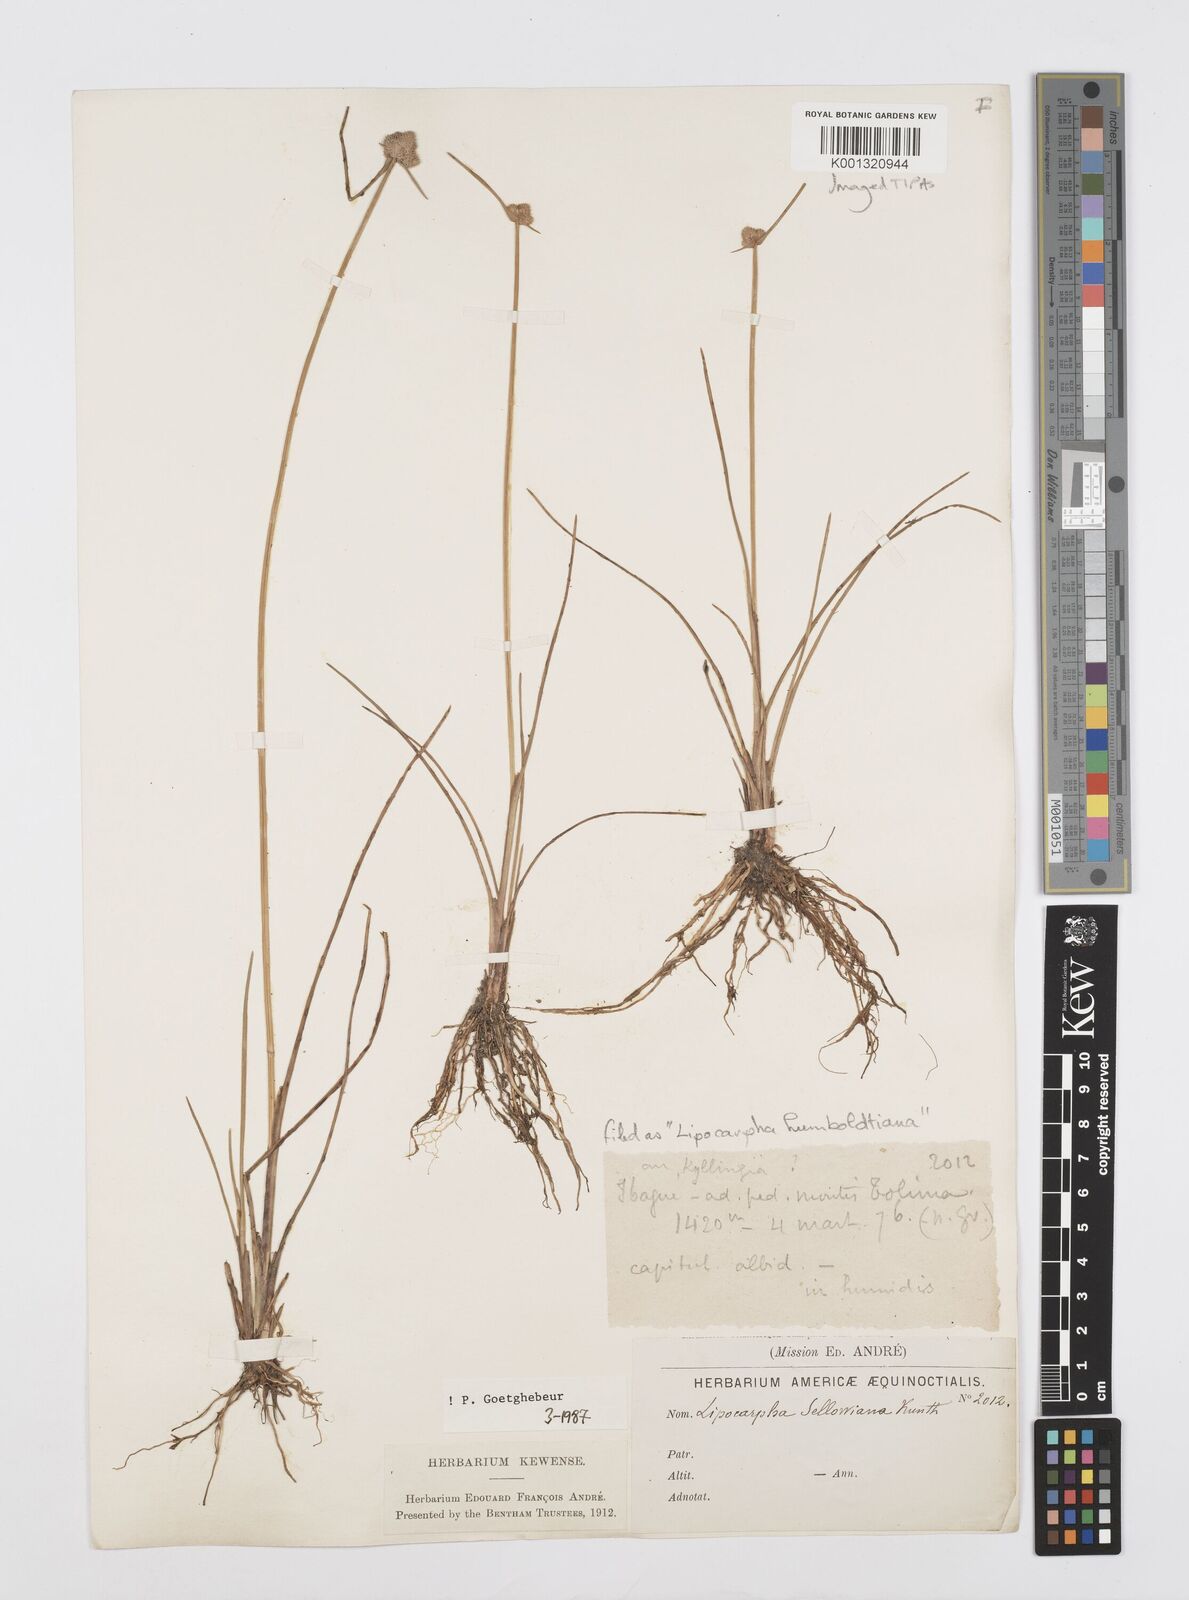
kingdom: Plantae
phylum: Tracheophyta
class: Liliopsida
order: Poales
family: Cyperaceae
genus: Cyperus
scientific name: Cyperus lanceolatus
